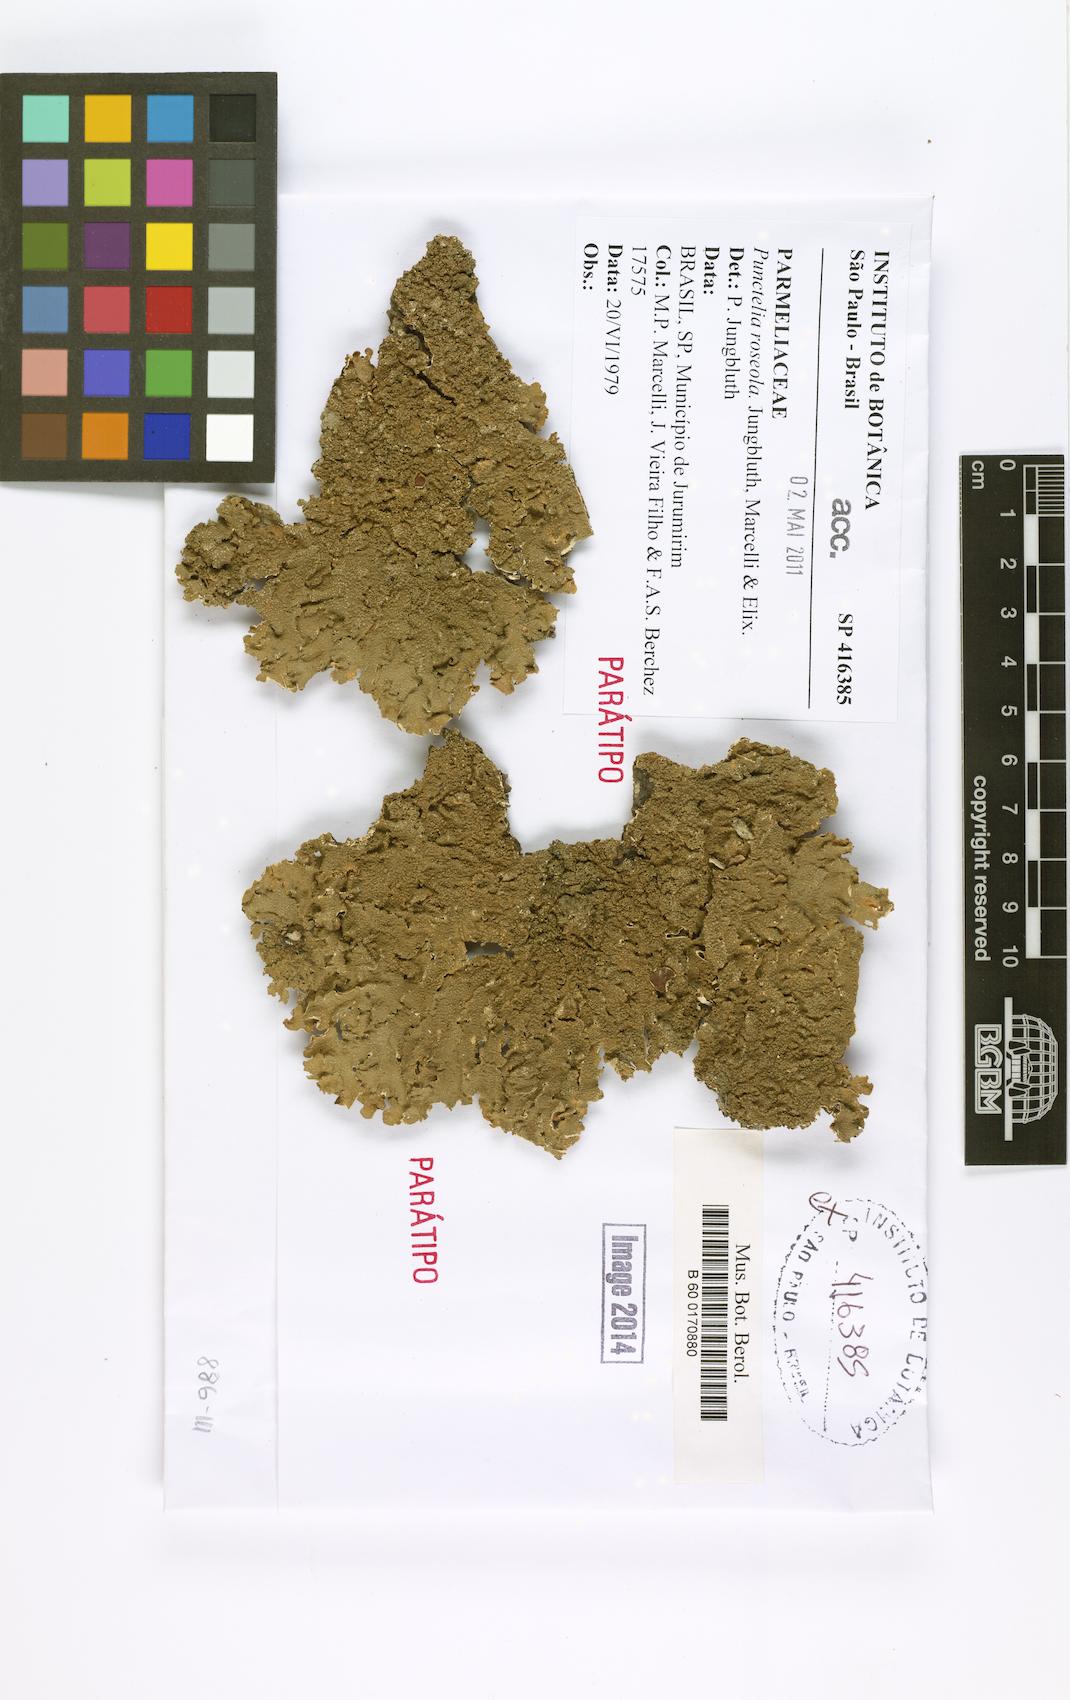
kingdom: Fungi
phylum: Ascomycota
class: Lecanoromycetes
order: Lecanorales
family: Parmeliaceae
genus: Punctelia
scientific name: Punctelia roseola
